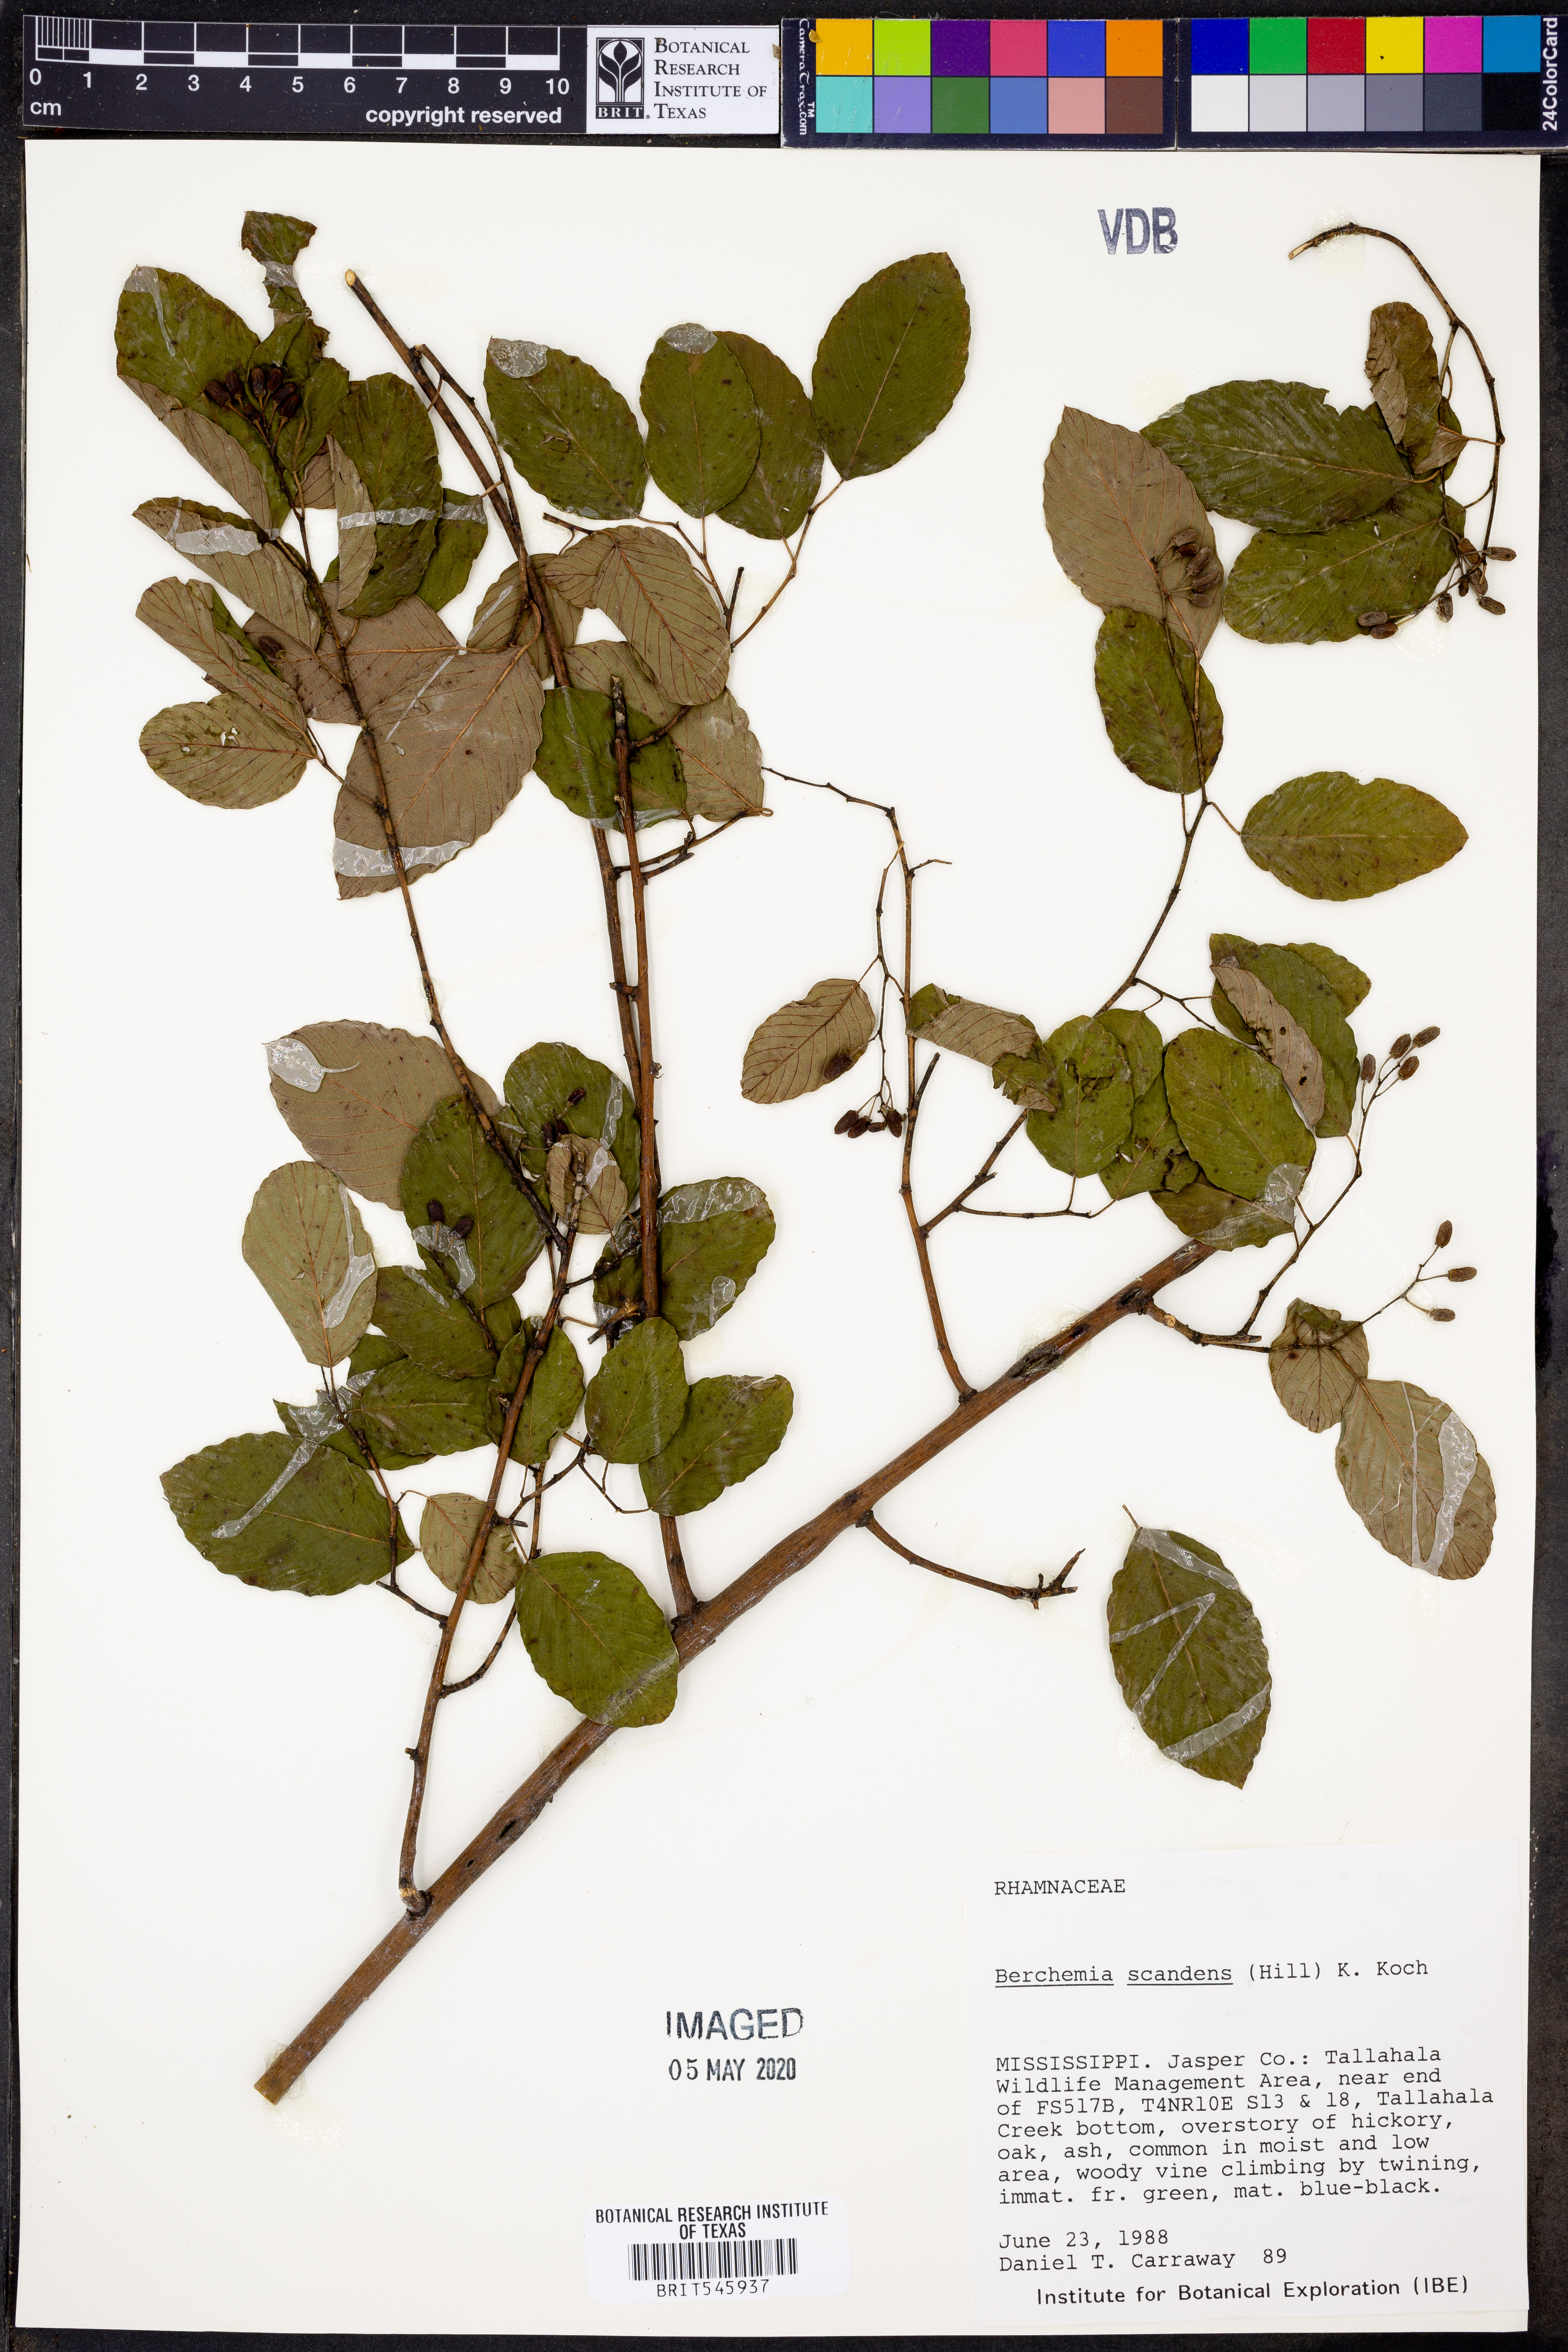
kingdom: Plantae
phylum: Tracheophyta
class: Magnoliopsida
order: Rosales
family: Rhamnaceae
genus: Berchemia
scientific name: Berchemia scandens
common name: Supplejack
